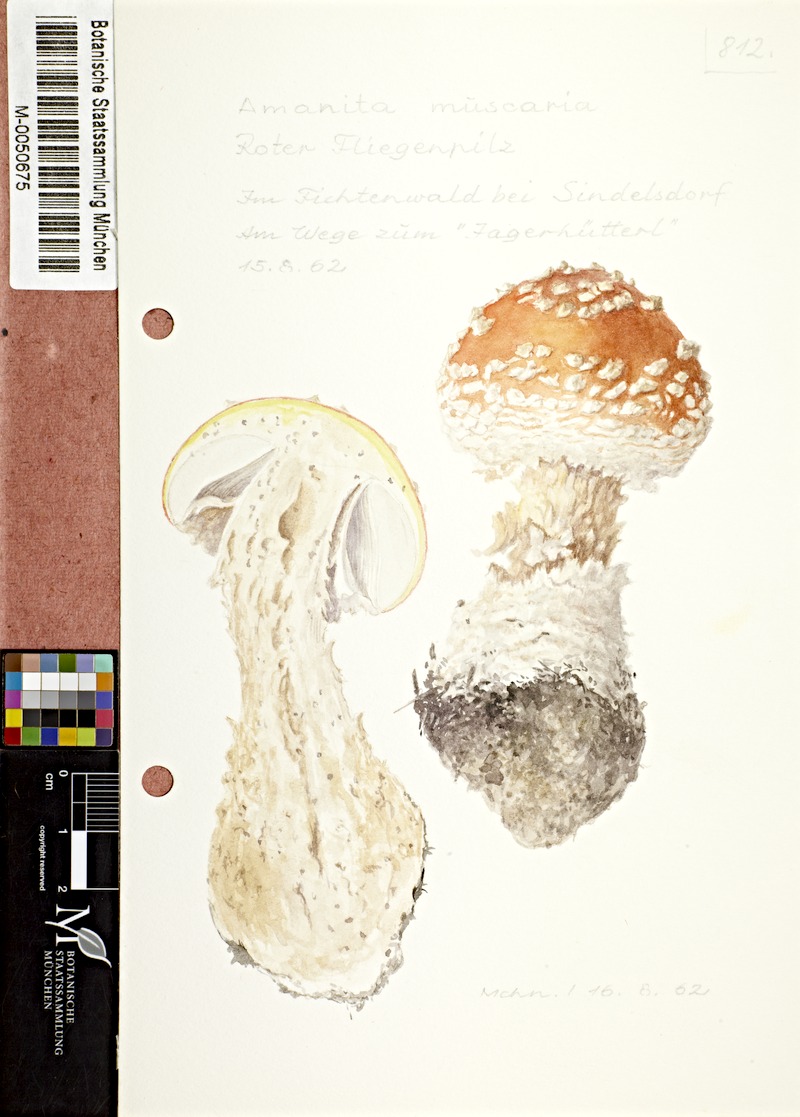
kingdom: Fungi
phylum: Basidiomycota
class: Agaricomycetes
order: Agaricales
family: Amanitaceae
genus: Amanita
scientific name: Amanita muscaria
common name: Fly agaric
